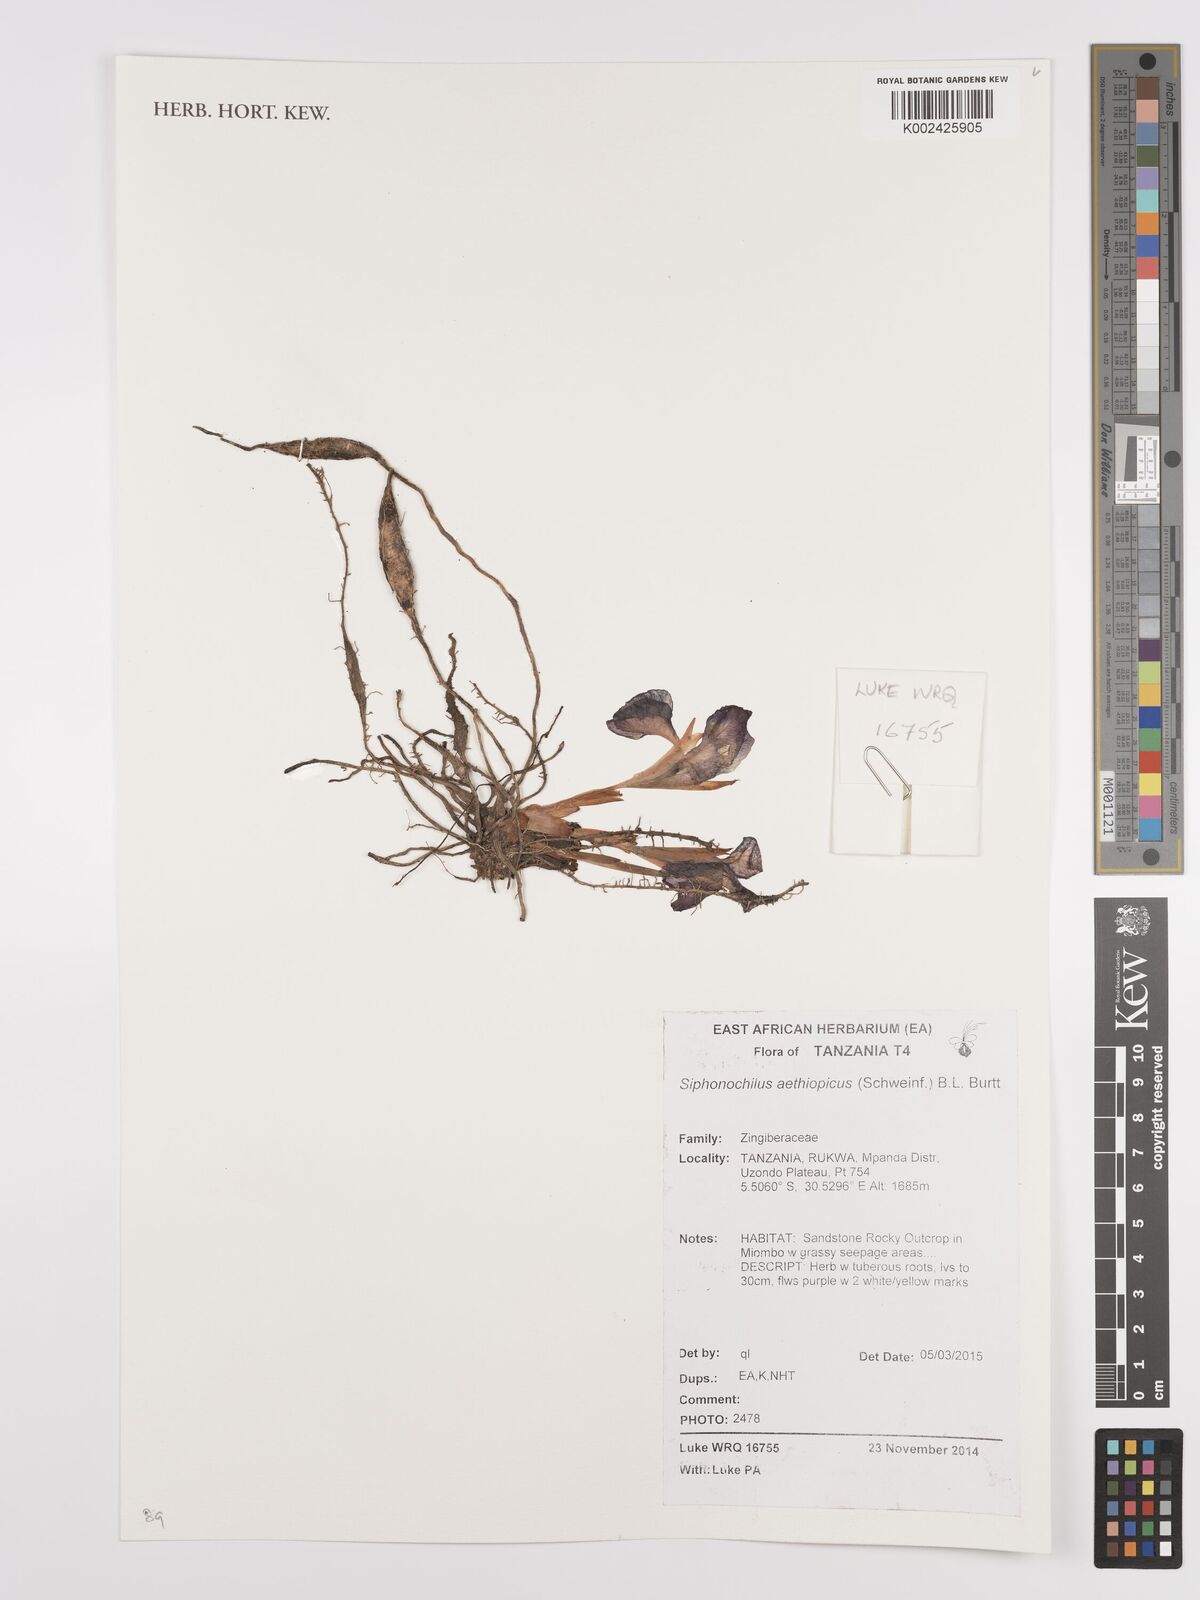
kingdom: Plantae
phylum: Tracheophyta
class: Liliopsida
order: Zingiberales
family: Zingiberaceae
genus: Siphonochilus
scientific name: Siphonochilus aethiopicus
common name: African-ginger
